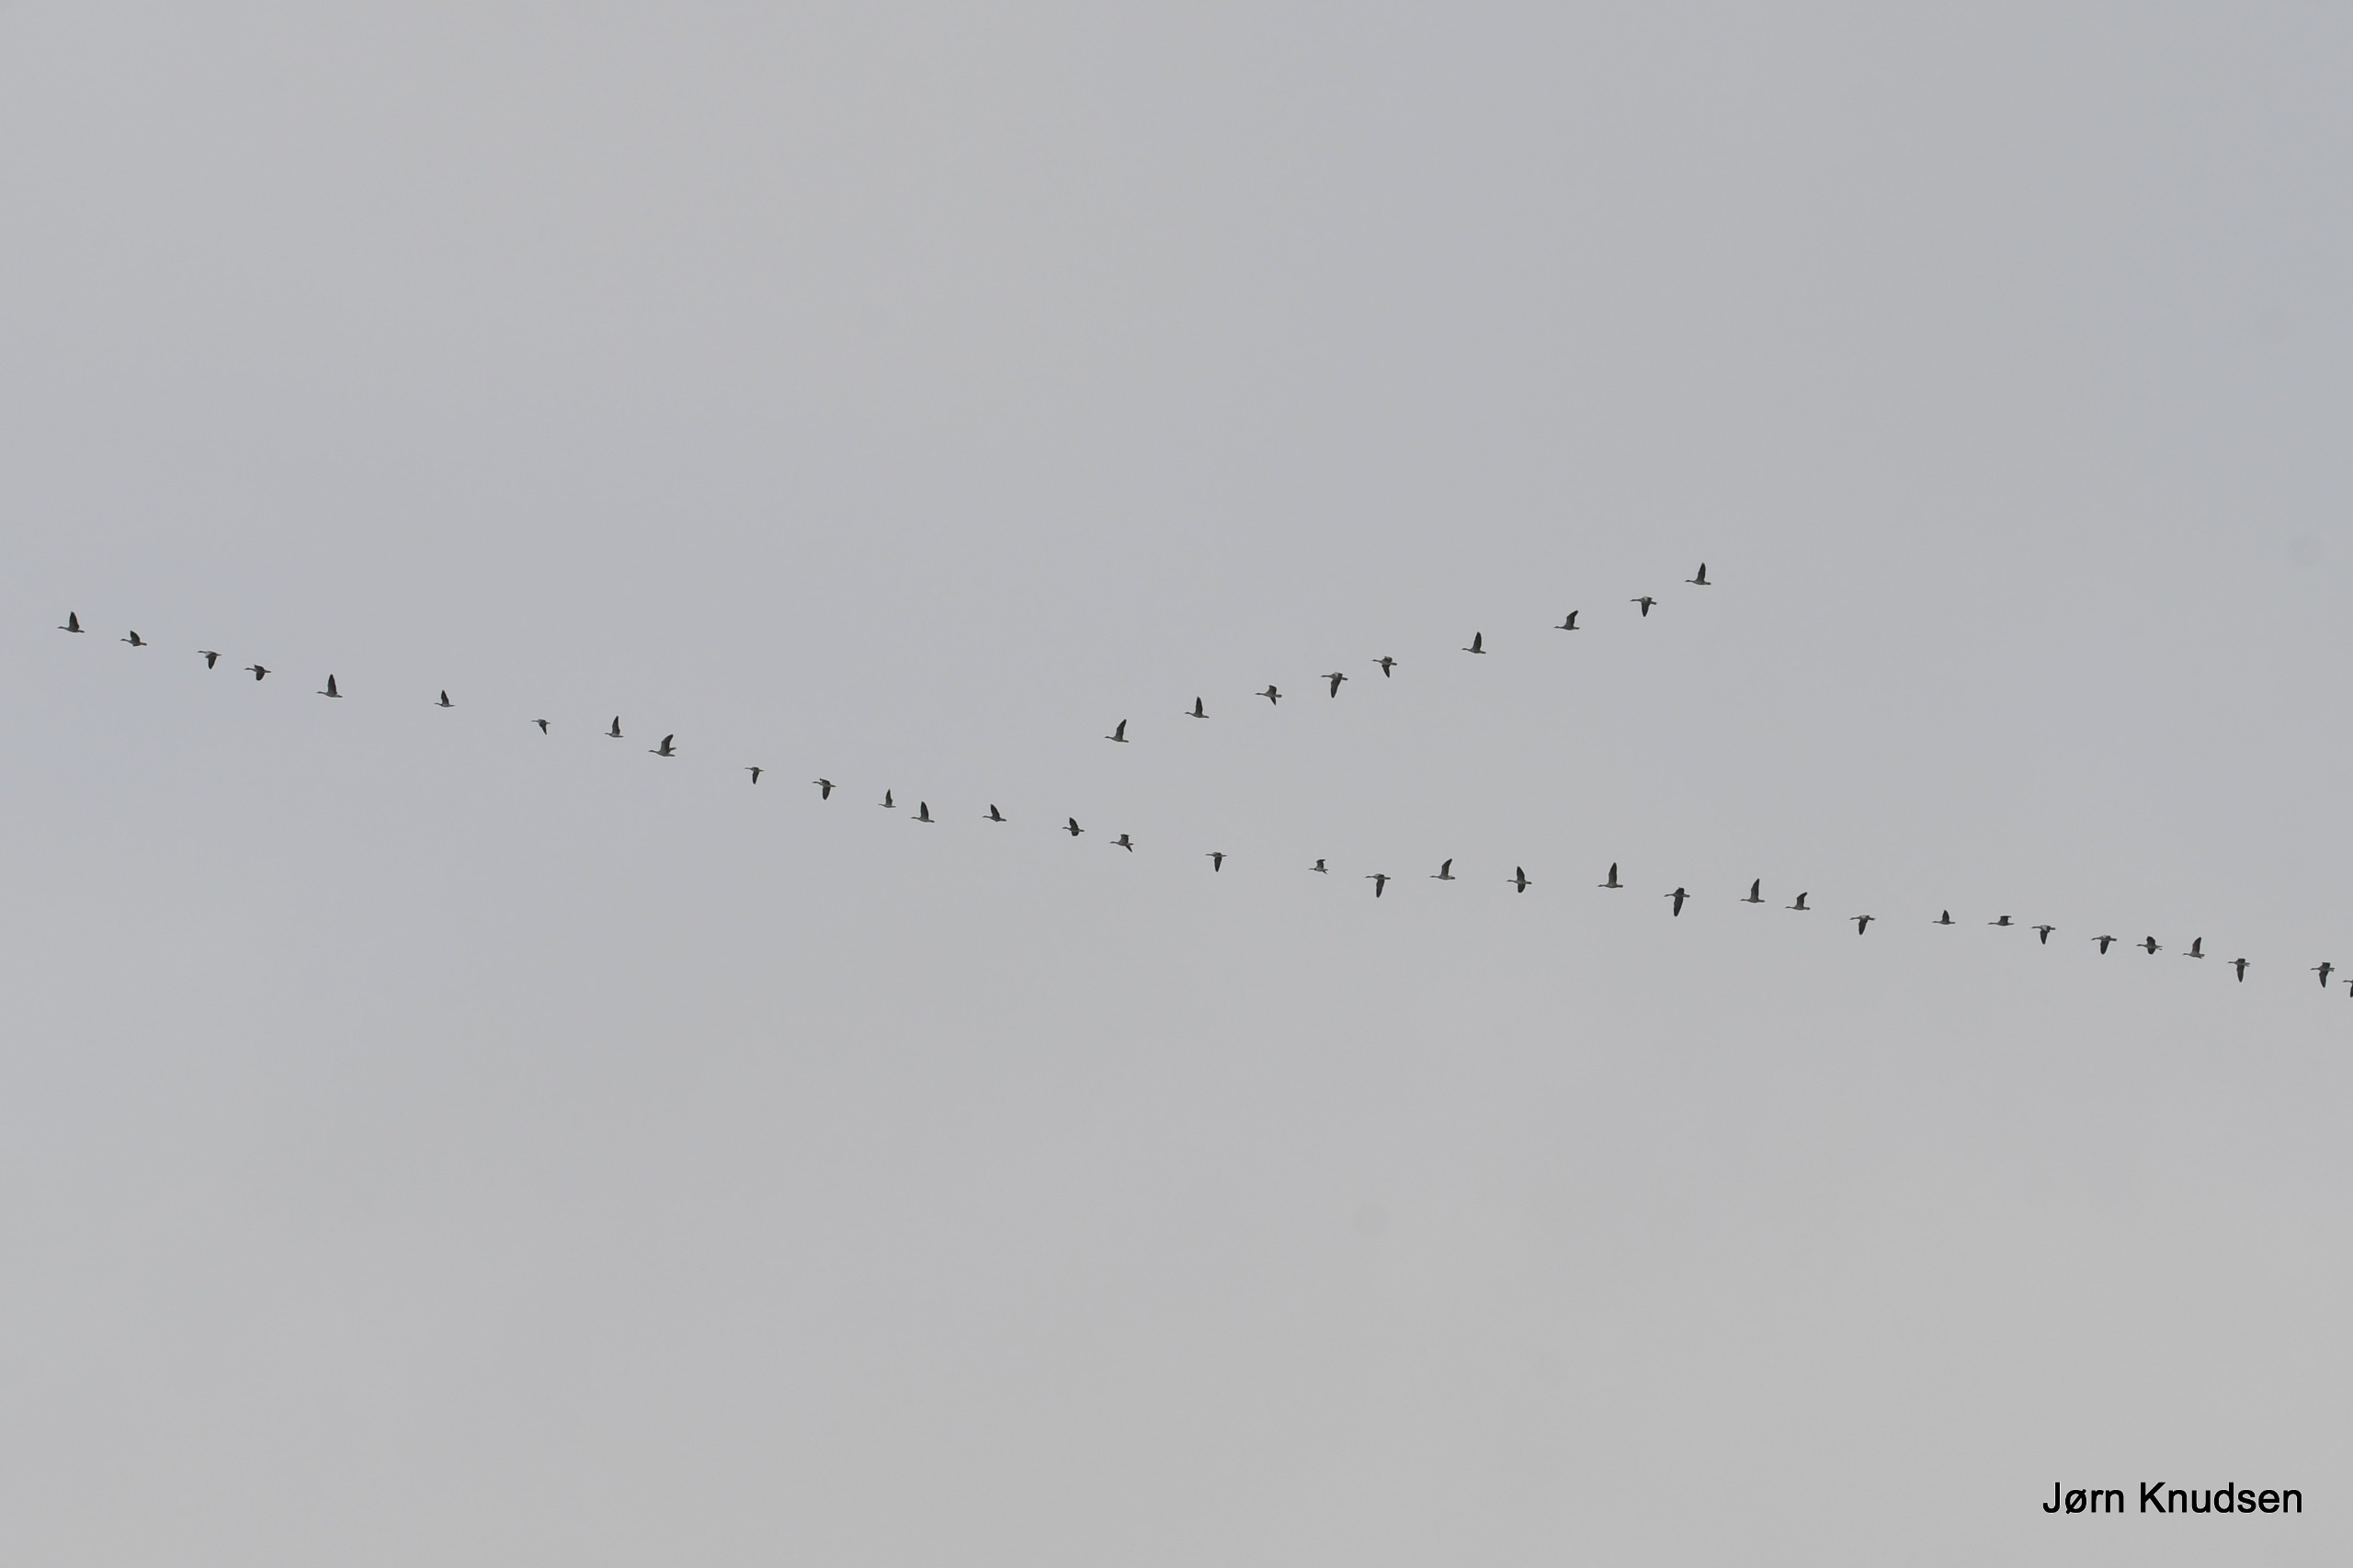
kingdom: Animalia
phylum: Chordata
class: Aves
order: Anseriformes
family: Anatidae
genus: Anser
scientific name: Anser anser
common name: Grågås
